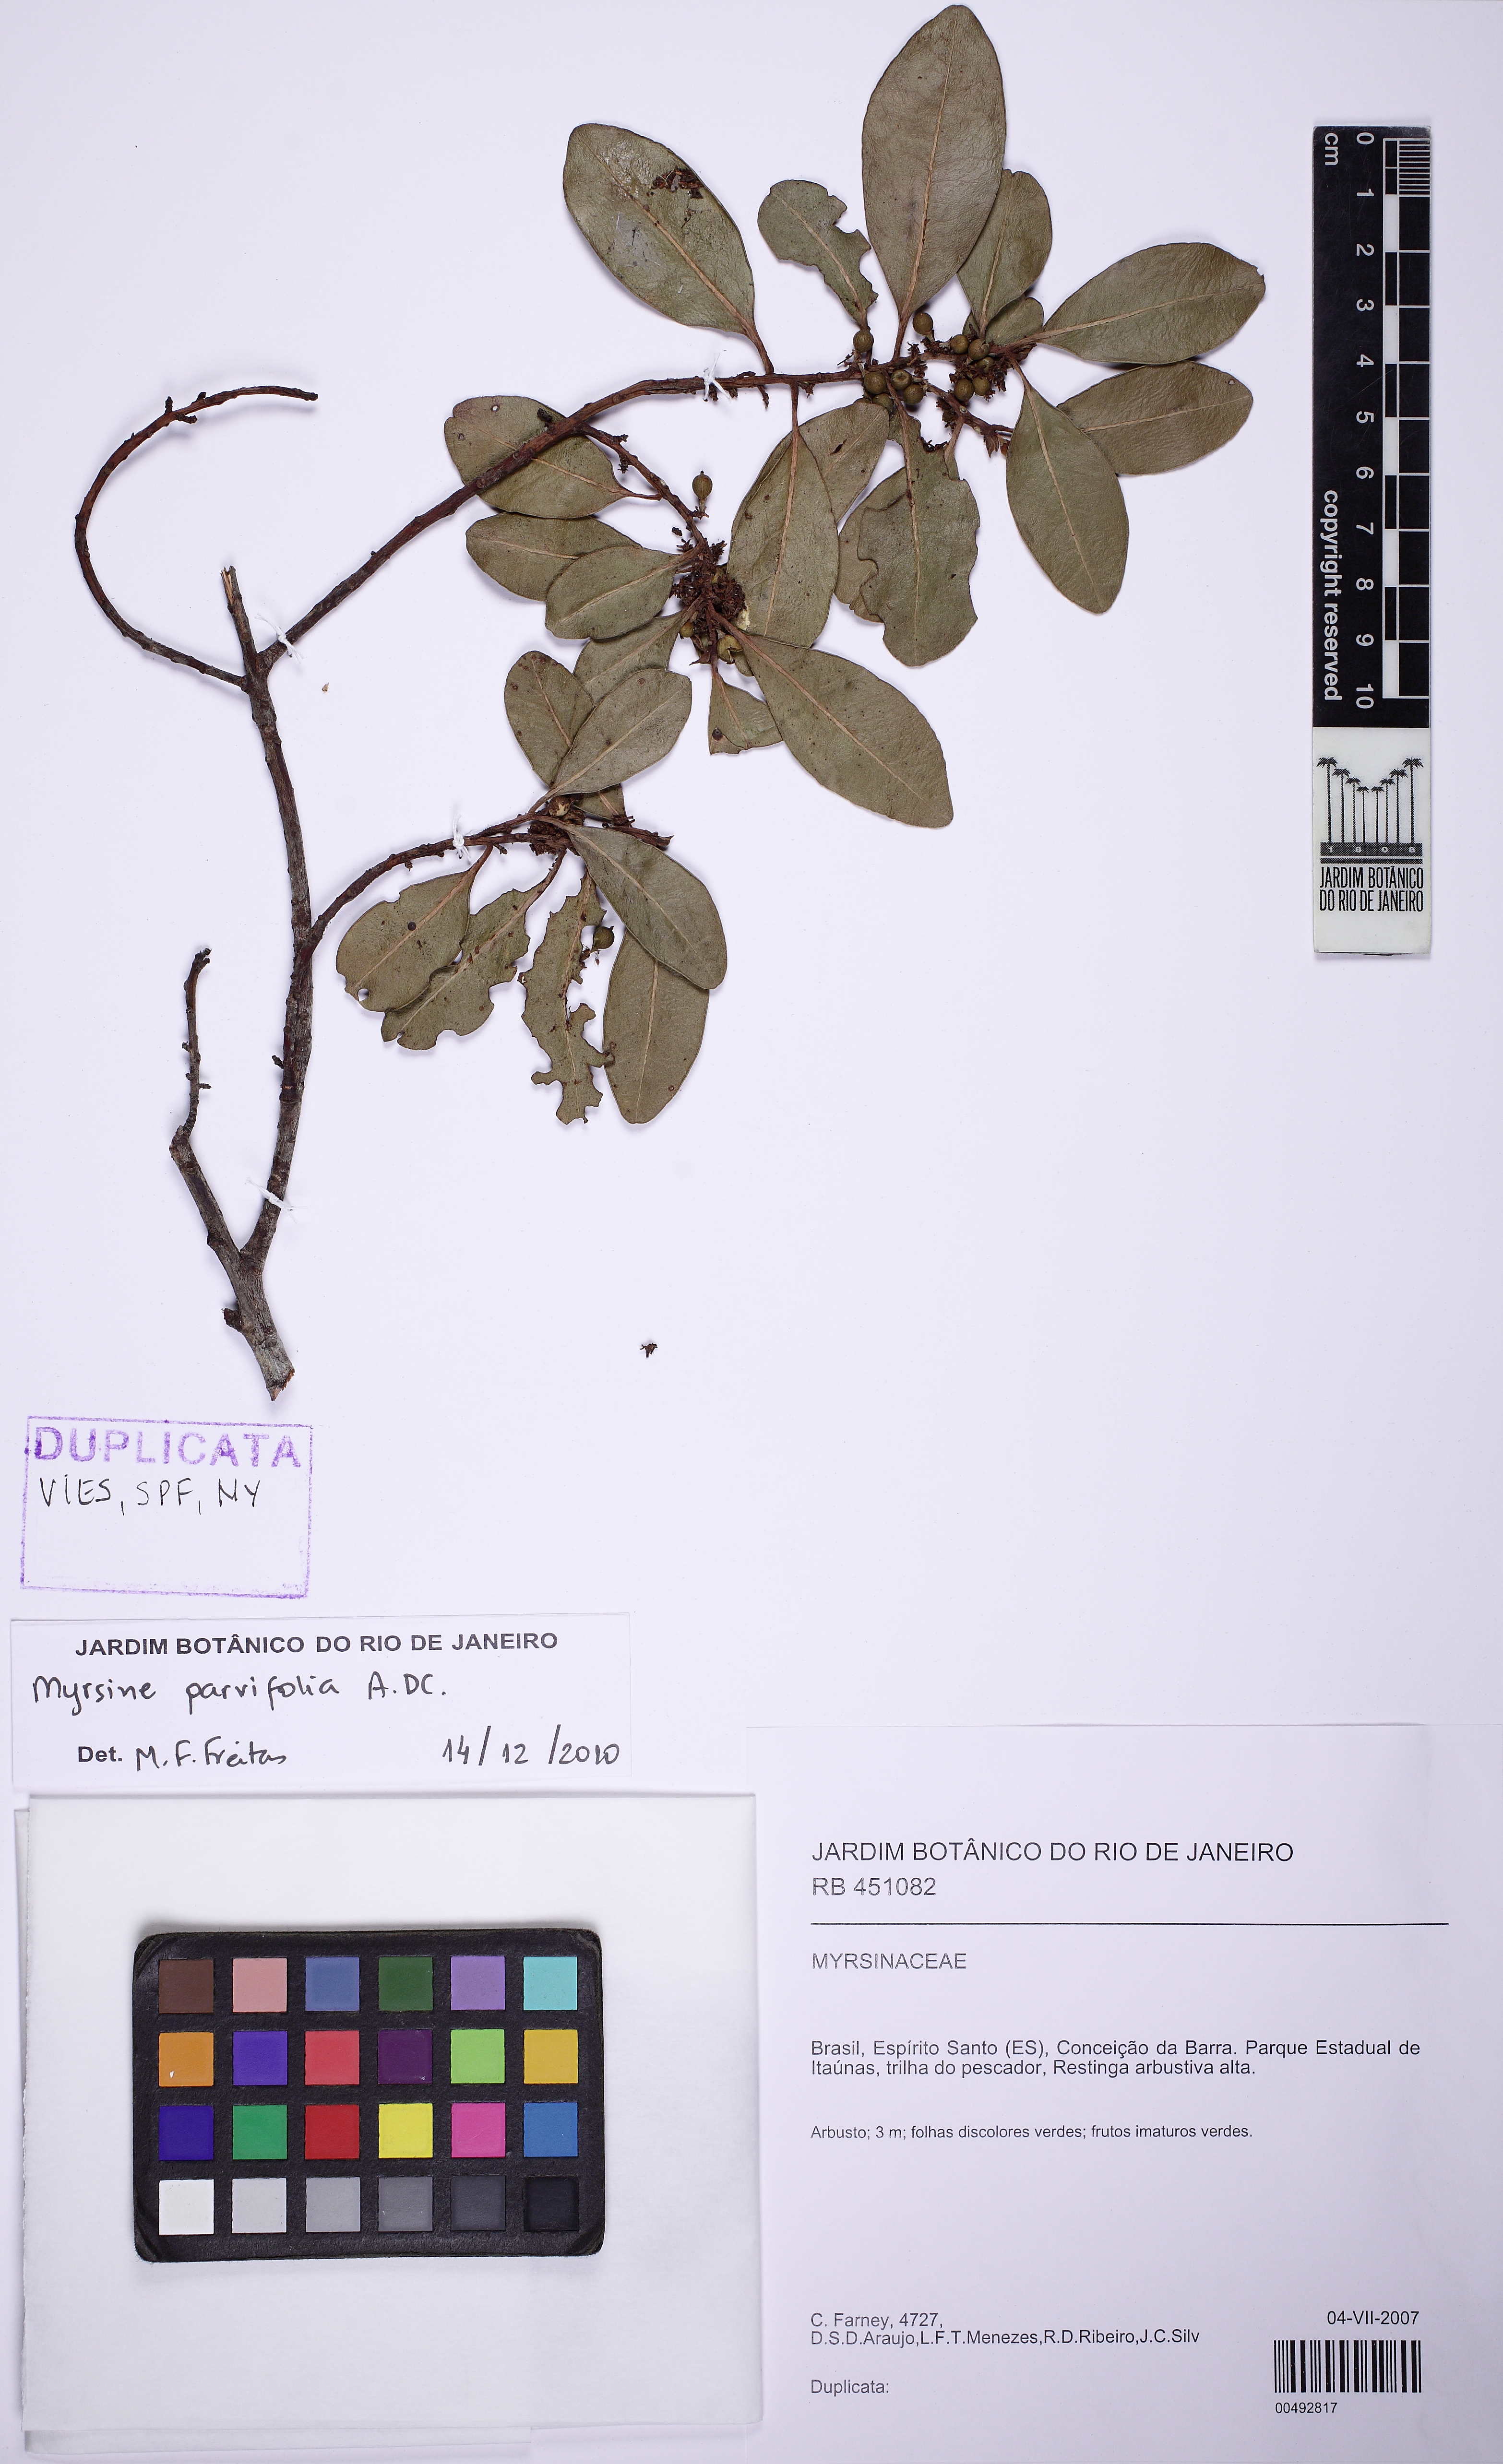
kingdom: Plantae
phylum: Tracheophyta
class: Magnoliopsida
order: Ericales
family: Primulaceae
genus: Myrsine
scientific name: Myrsine parvifolia
